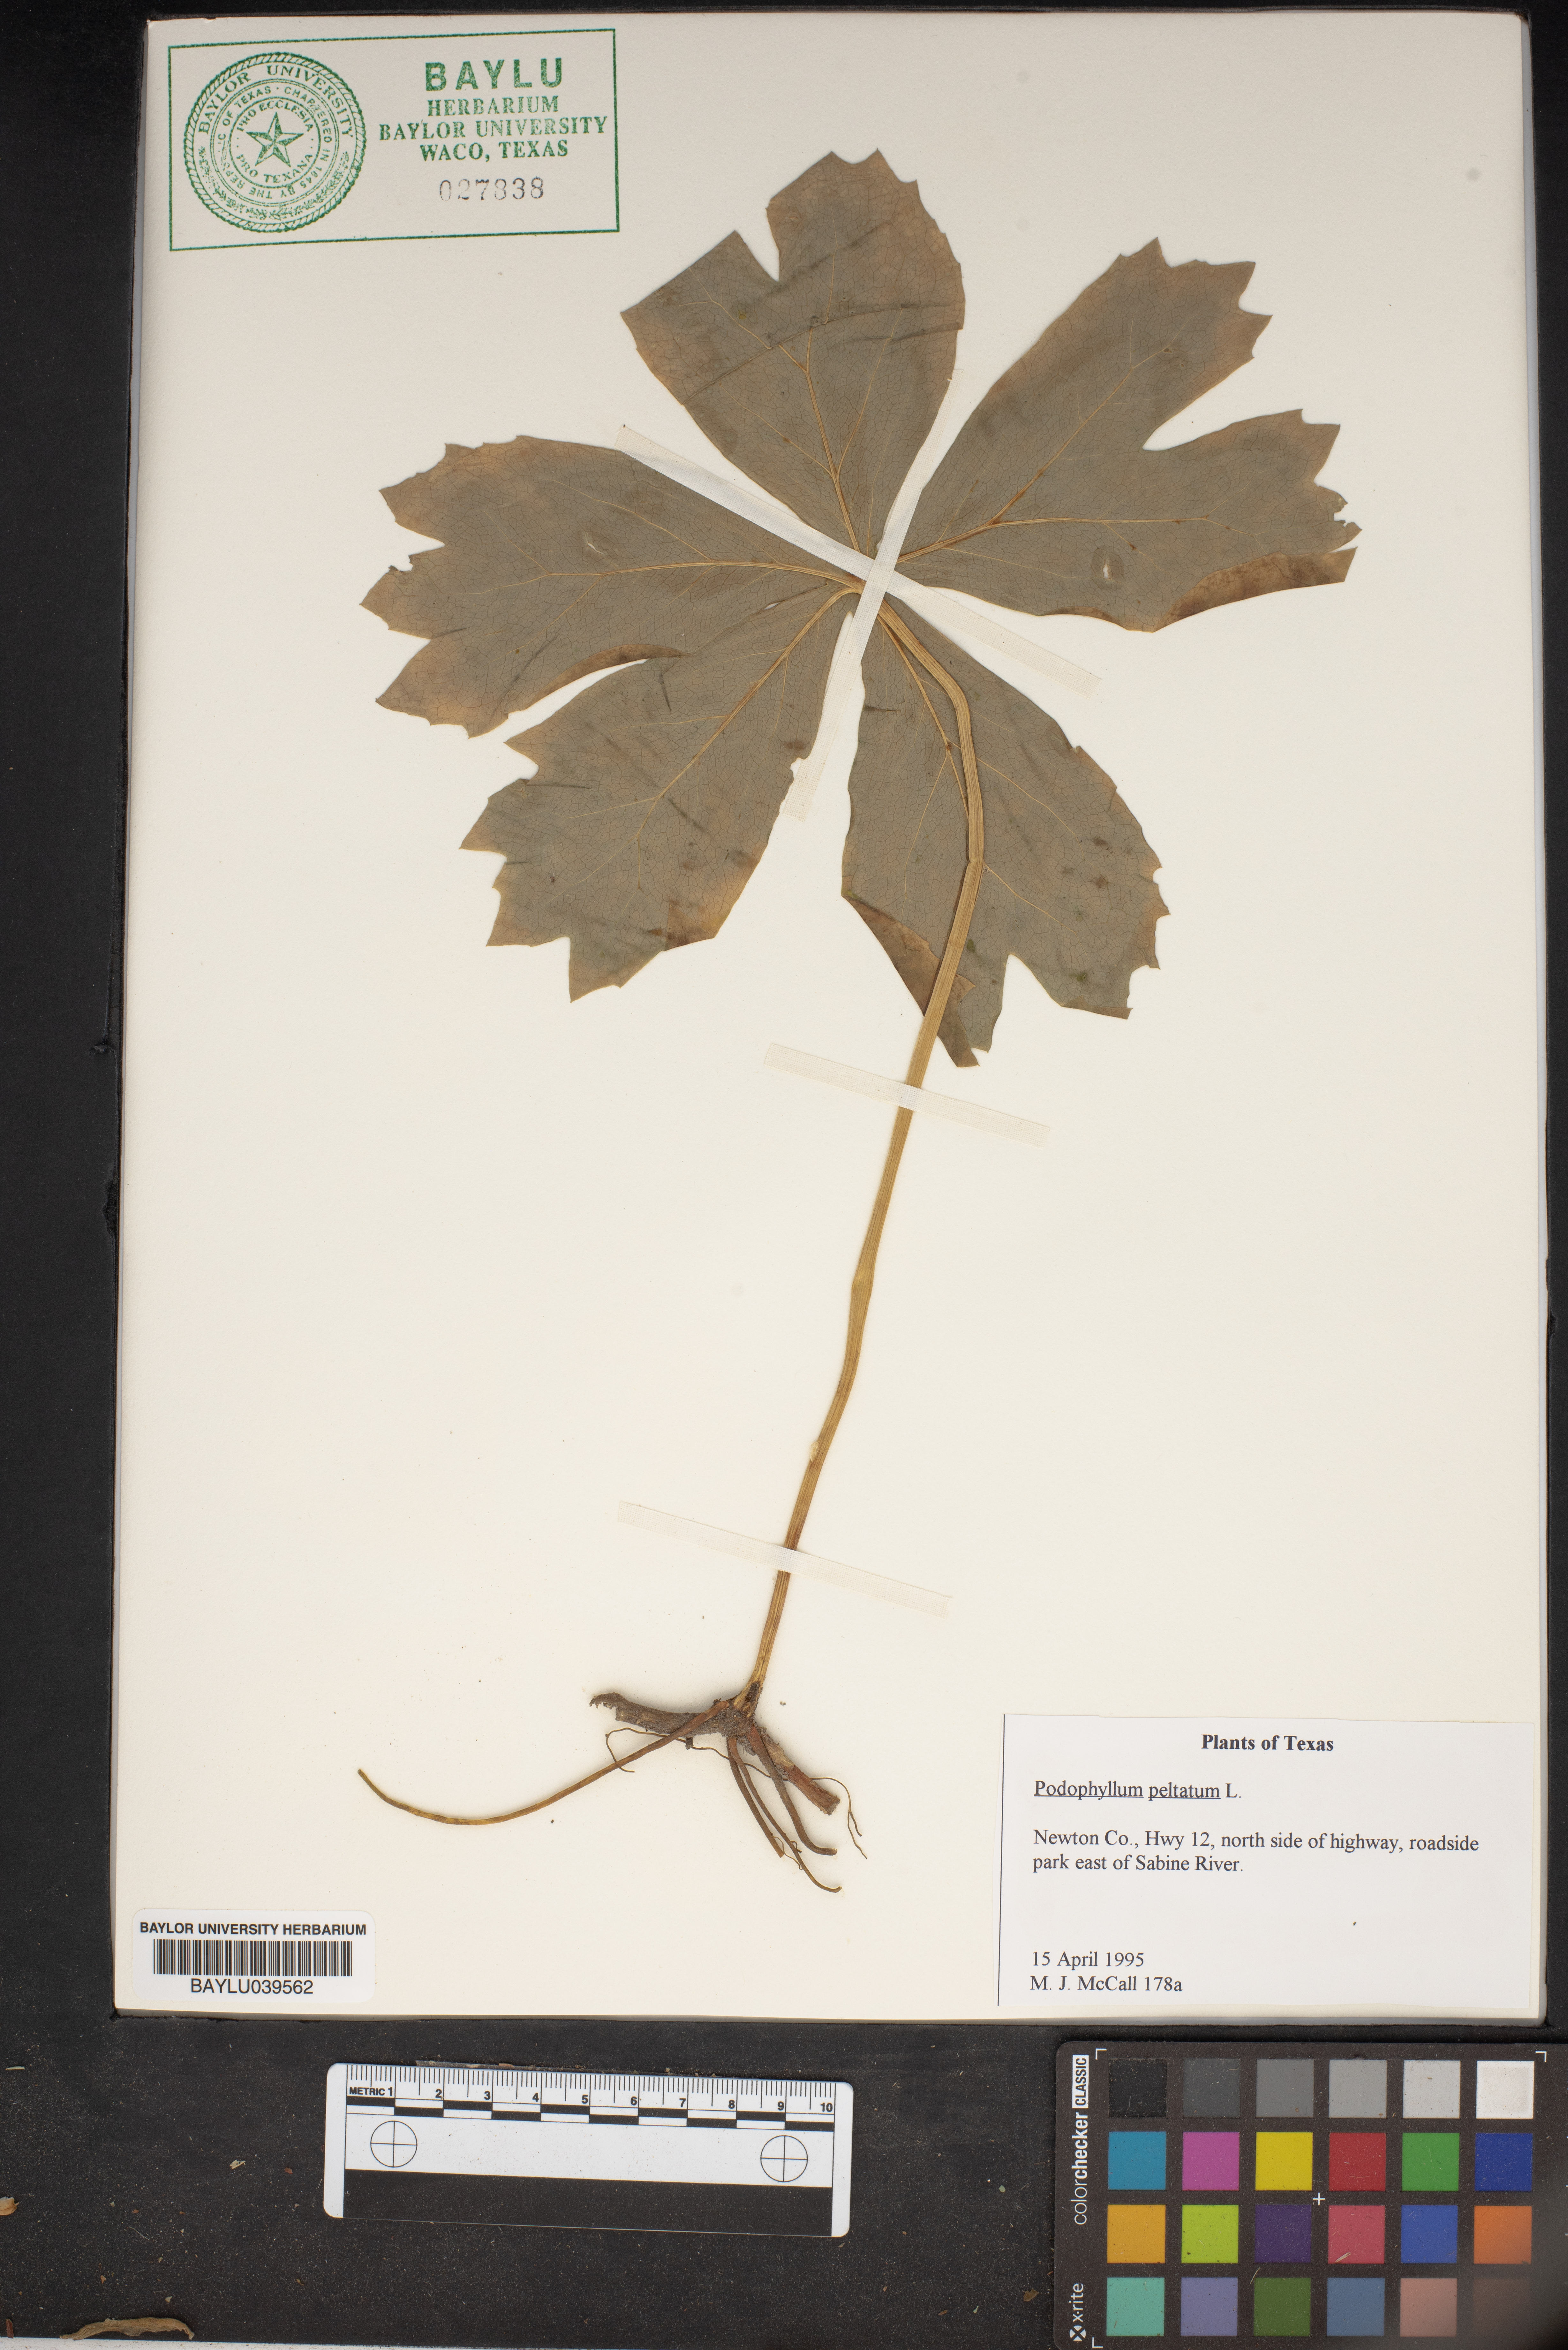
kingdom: Plantae
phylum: Tracheophyta
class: Magnoliopsida
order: Ranunculales
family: Berberidaceae
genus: Podophyllum
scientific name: Podophyllum peltatum
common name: Wild mandrake
